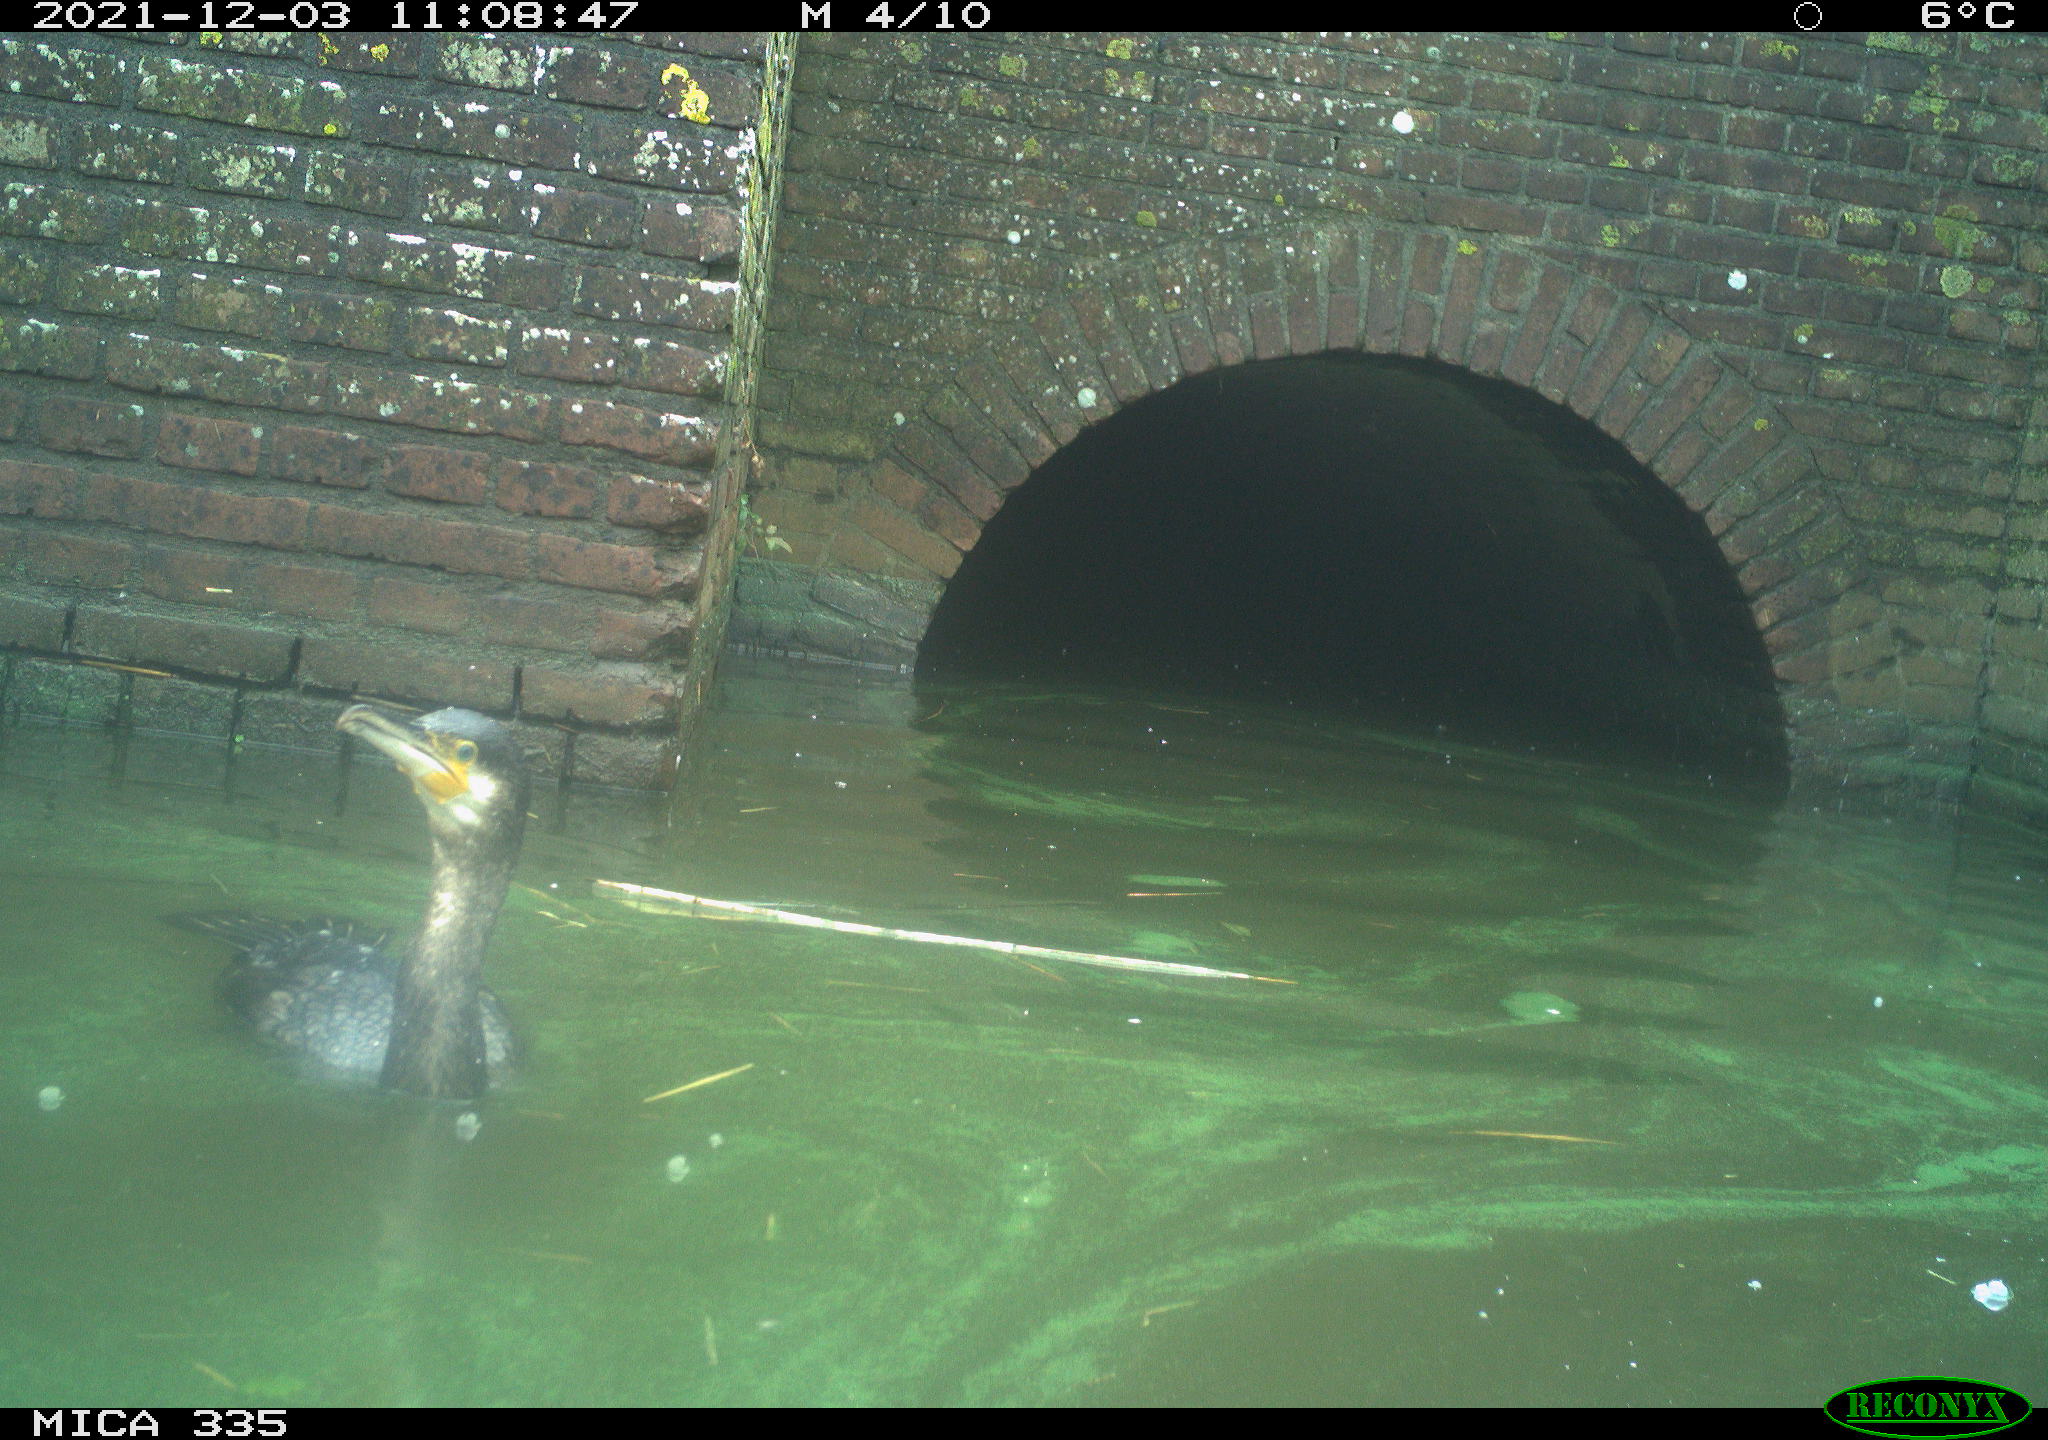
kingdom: Animalia
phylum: Chordata
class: Aves
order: Suliformes
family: Phalacrocoracidae
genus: Phalacrocorax
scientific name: Phalacrocorax carbo
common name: Great cormorant
